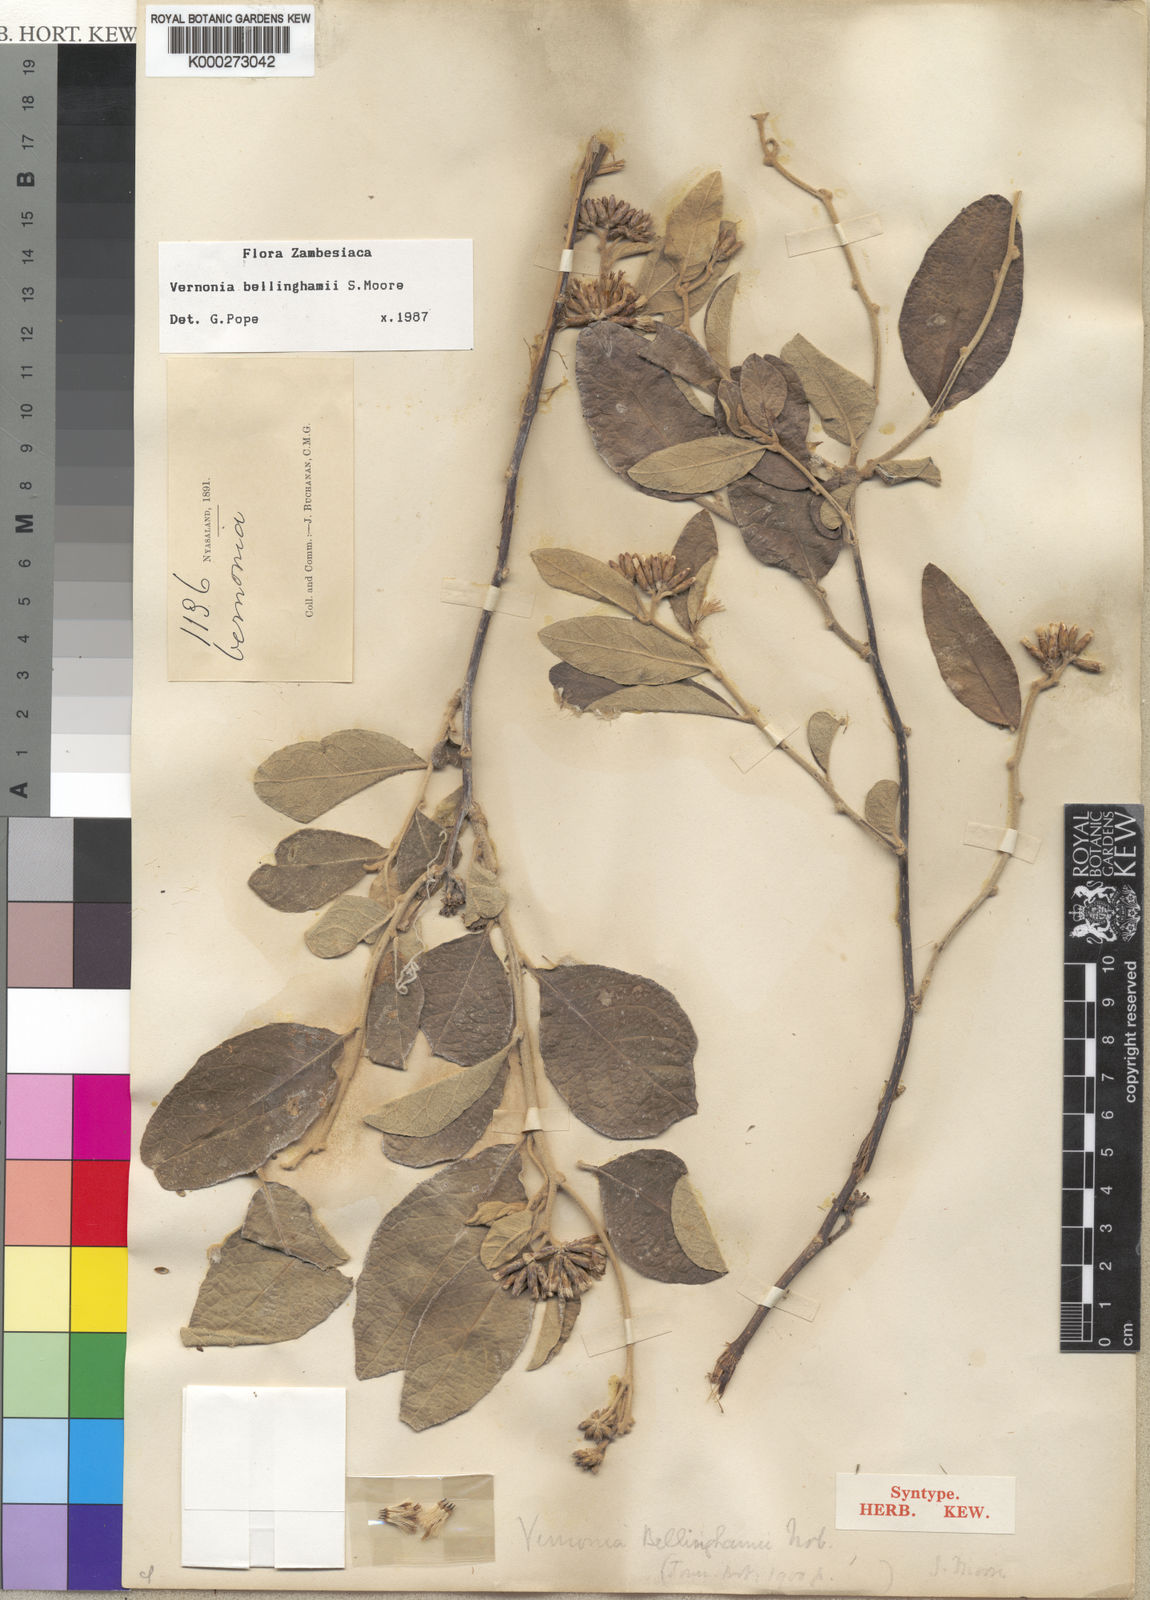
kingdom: Plantae
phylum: Tracheophyta
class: Magnoliopsida
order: Asterales
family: Asteraceae
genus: Gymnanthemum
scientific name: Gymnanthemum bellinghamii
